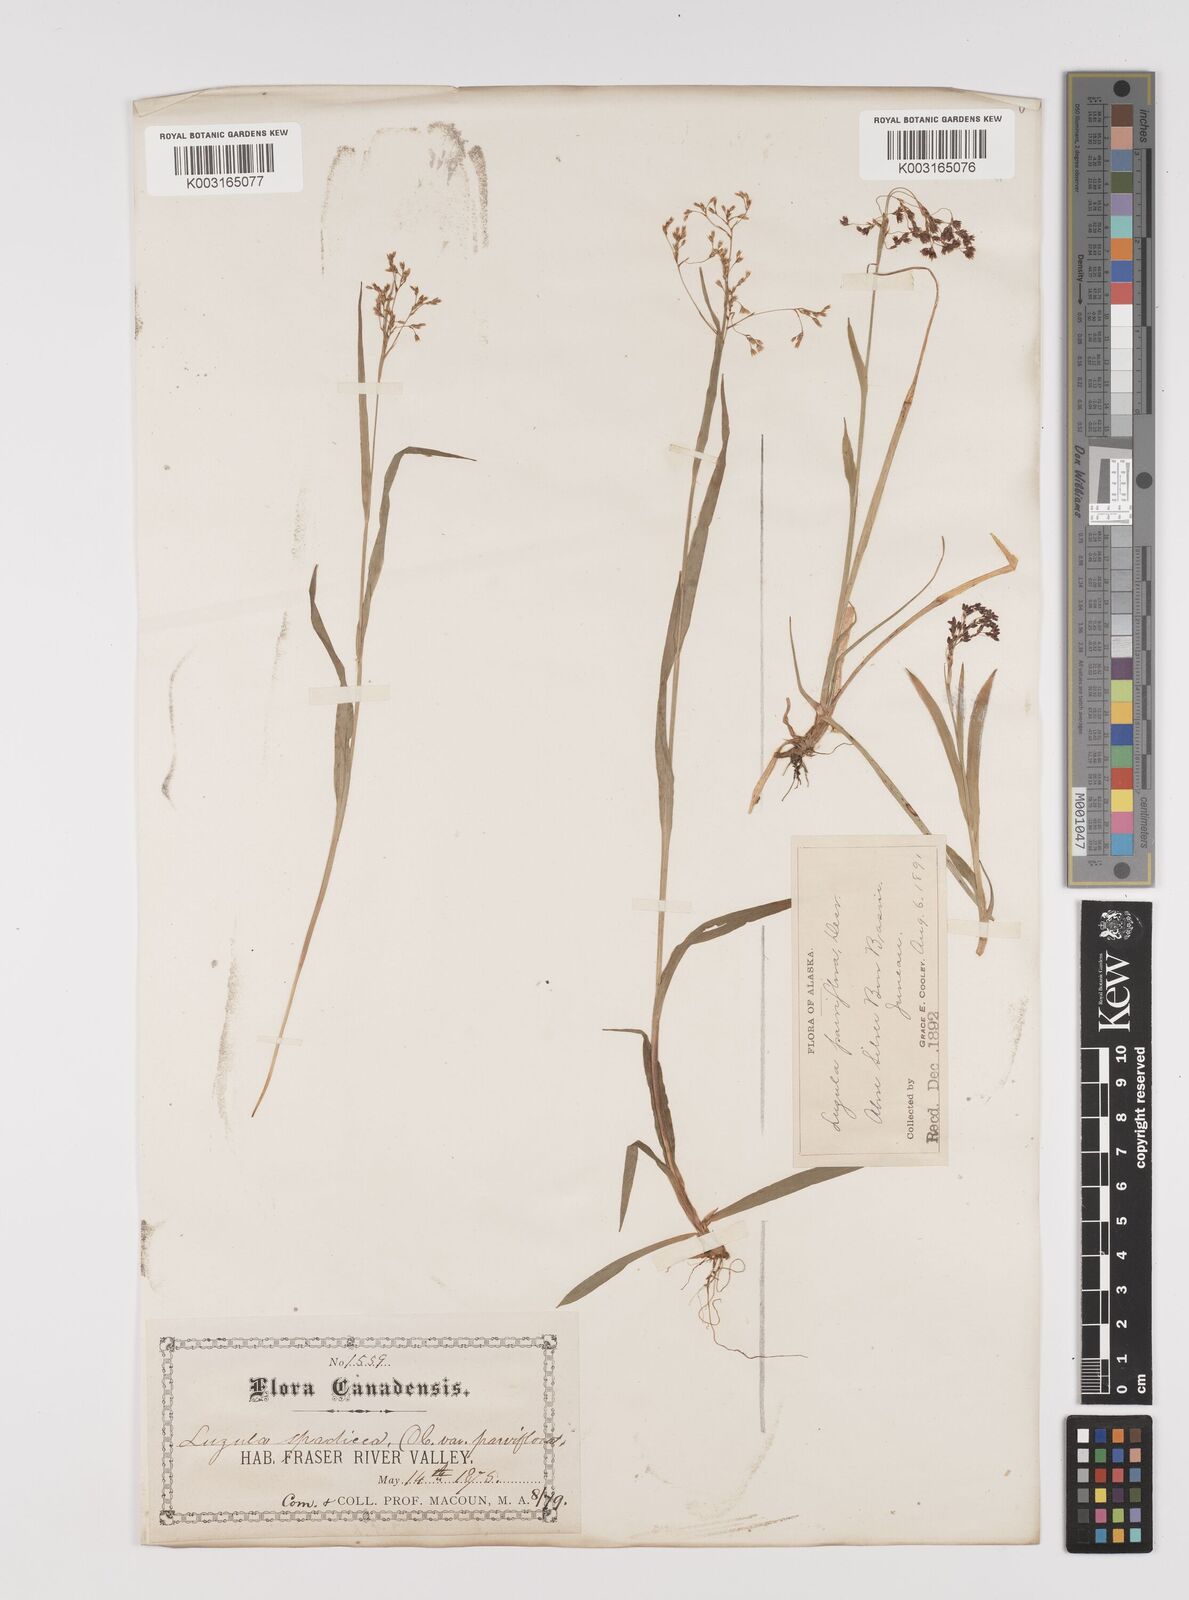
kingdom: Plantae
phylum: Tracheophyta
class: Liliopsida
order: Poales
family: Juncaceae
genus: Luzula
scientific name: Luzula alpinopilosa
